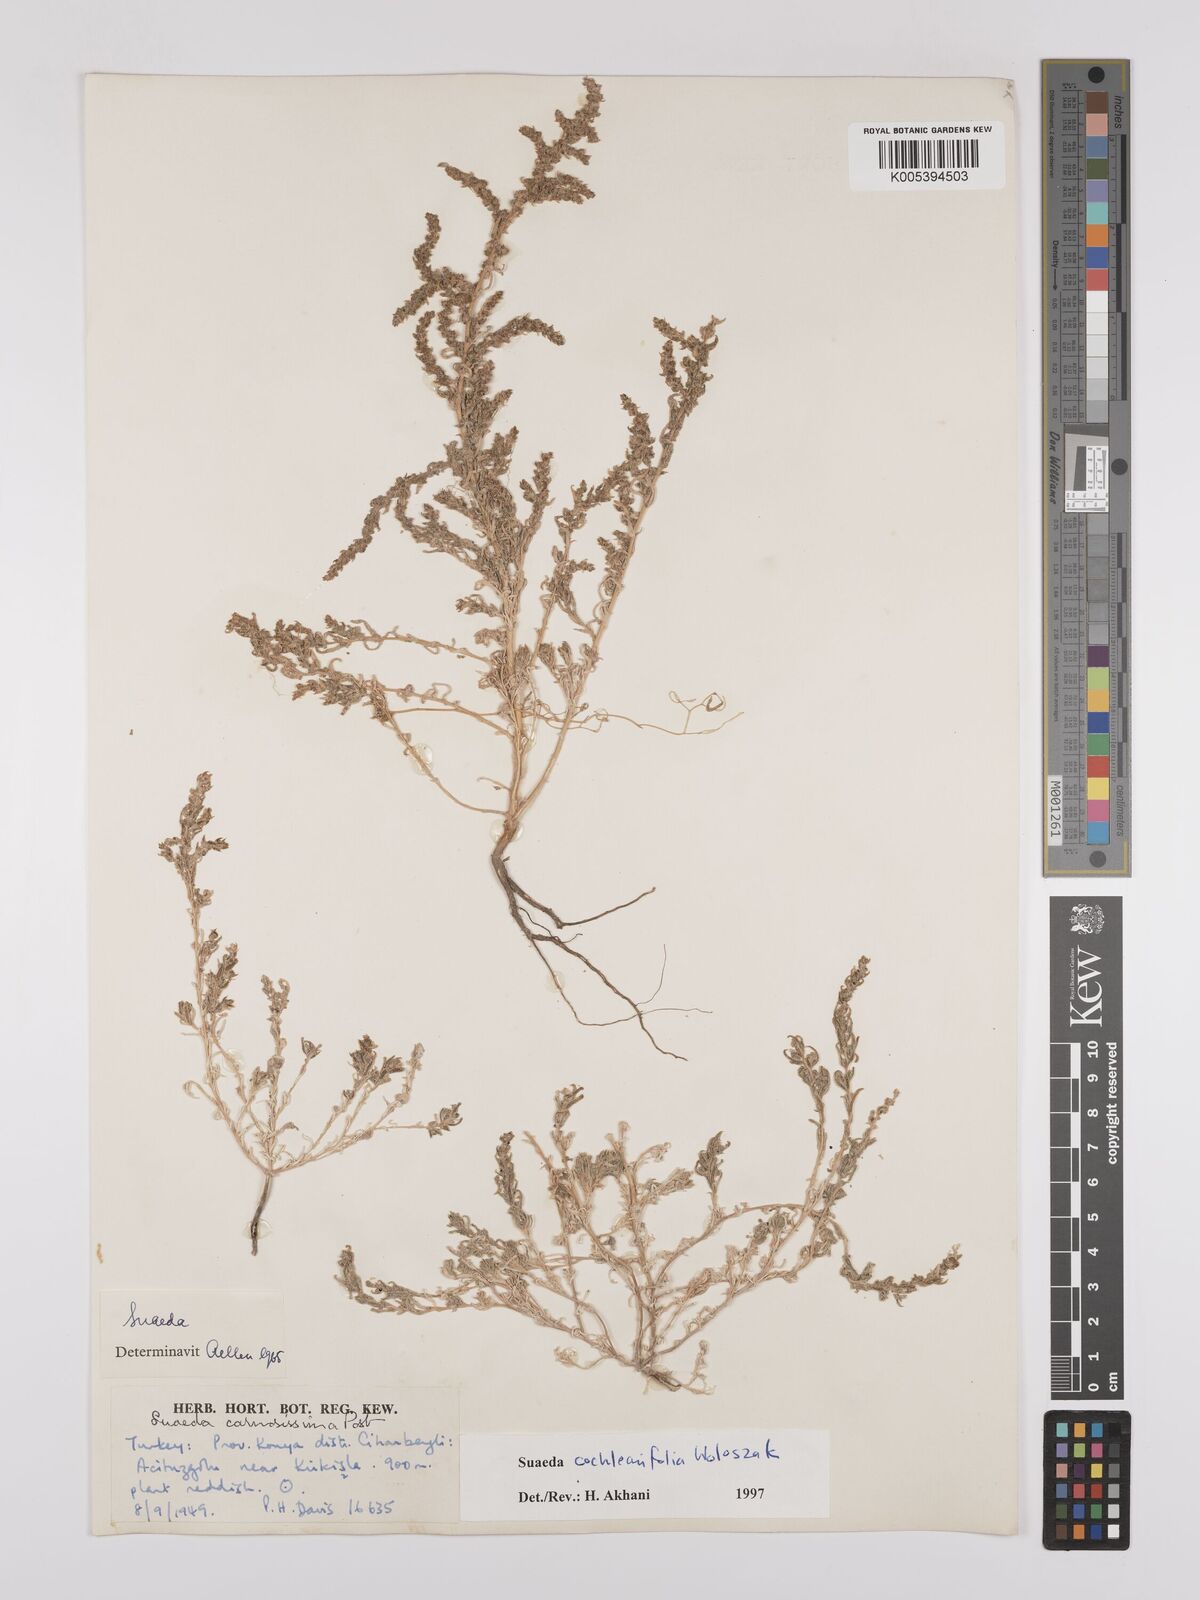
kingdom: Plantae
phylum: Tracheophyta
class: Magnoliopsida
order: Caryophyllales
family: Amaranthaceae
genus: Suaeda
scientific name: Suaeda carnosissima
